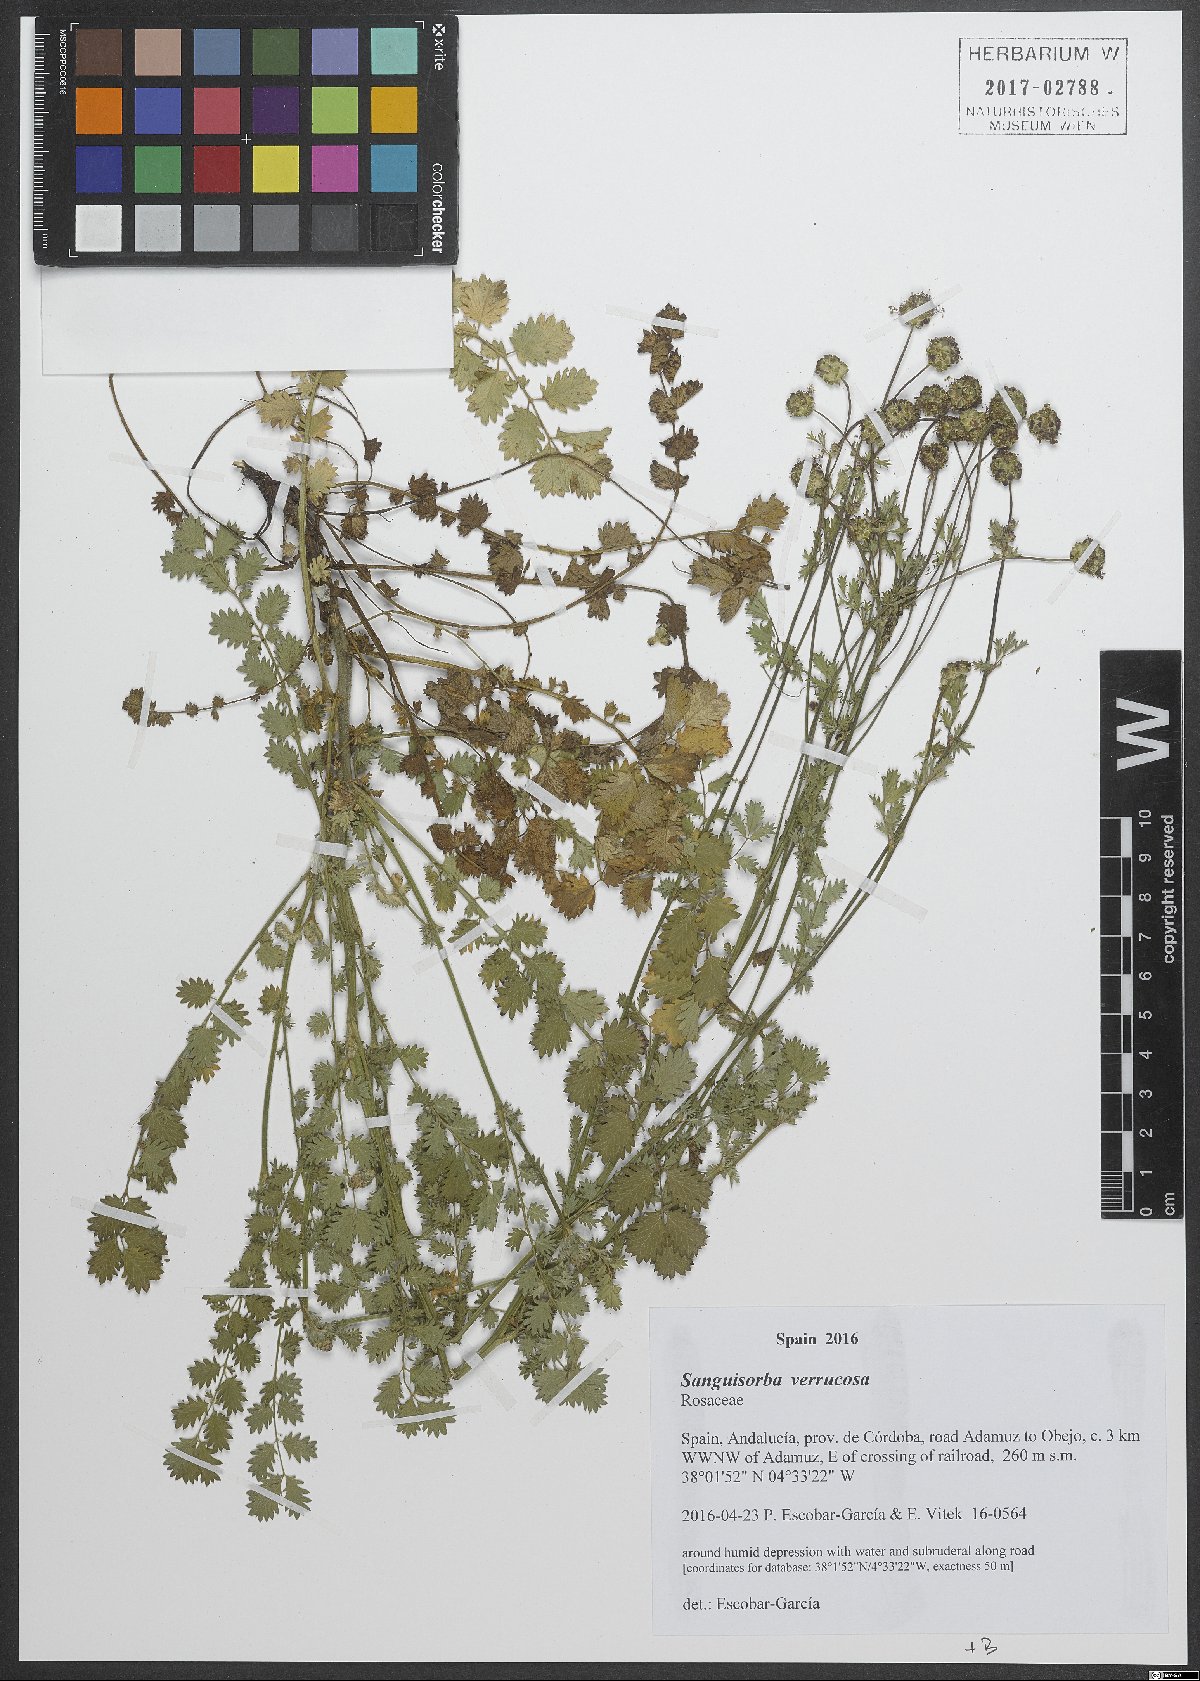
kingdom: Plantae
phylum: Tracheophyta
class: Magnoliopsida
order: Rosales
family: Rosaceae
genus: Poterium
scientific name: Poterium verrucosum
